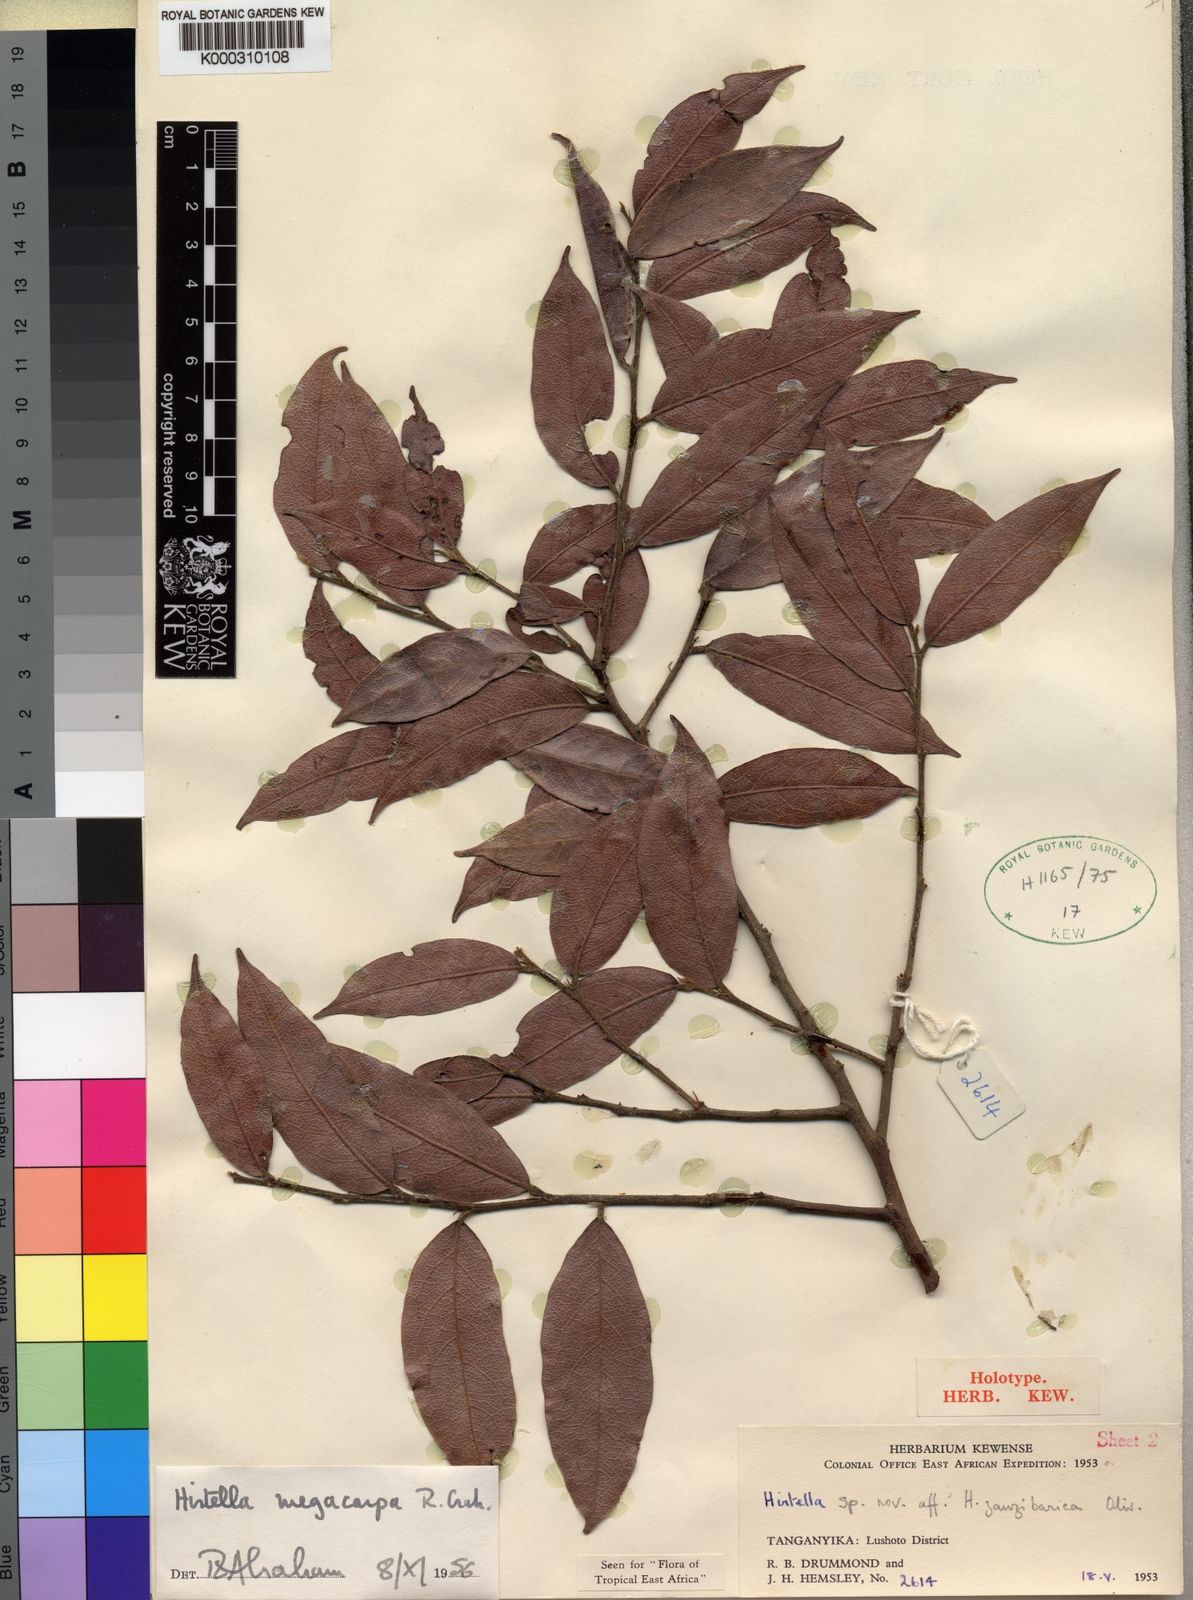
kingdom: Plantae
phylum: Tracheophyta
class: Magnoliopsida
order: Malpighiales
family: Chrysobalanaceae
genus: Hirtella
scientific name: Hirtella zanzibarica
